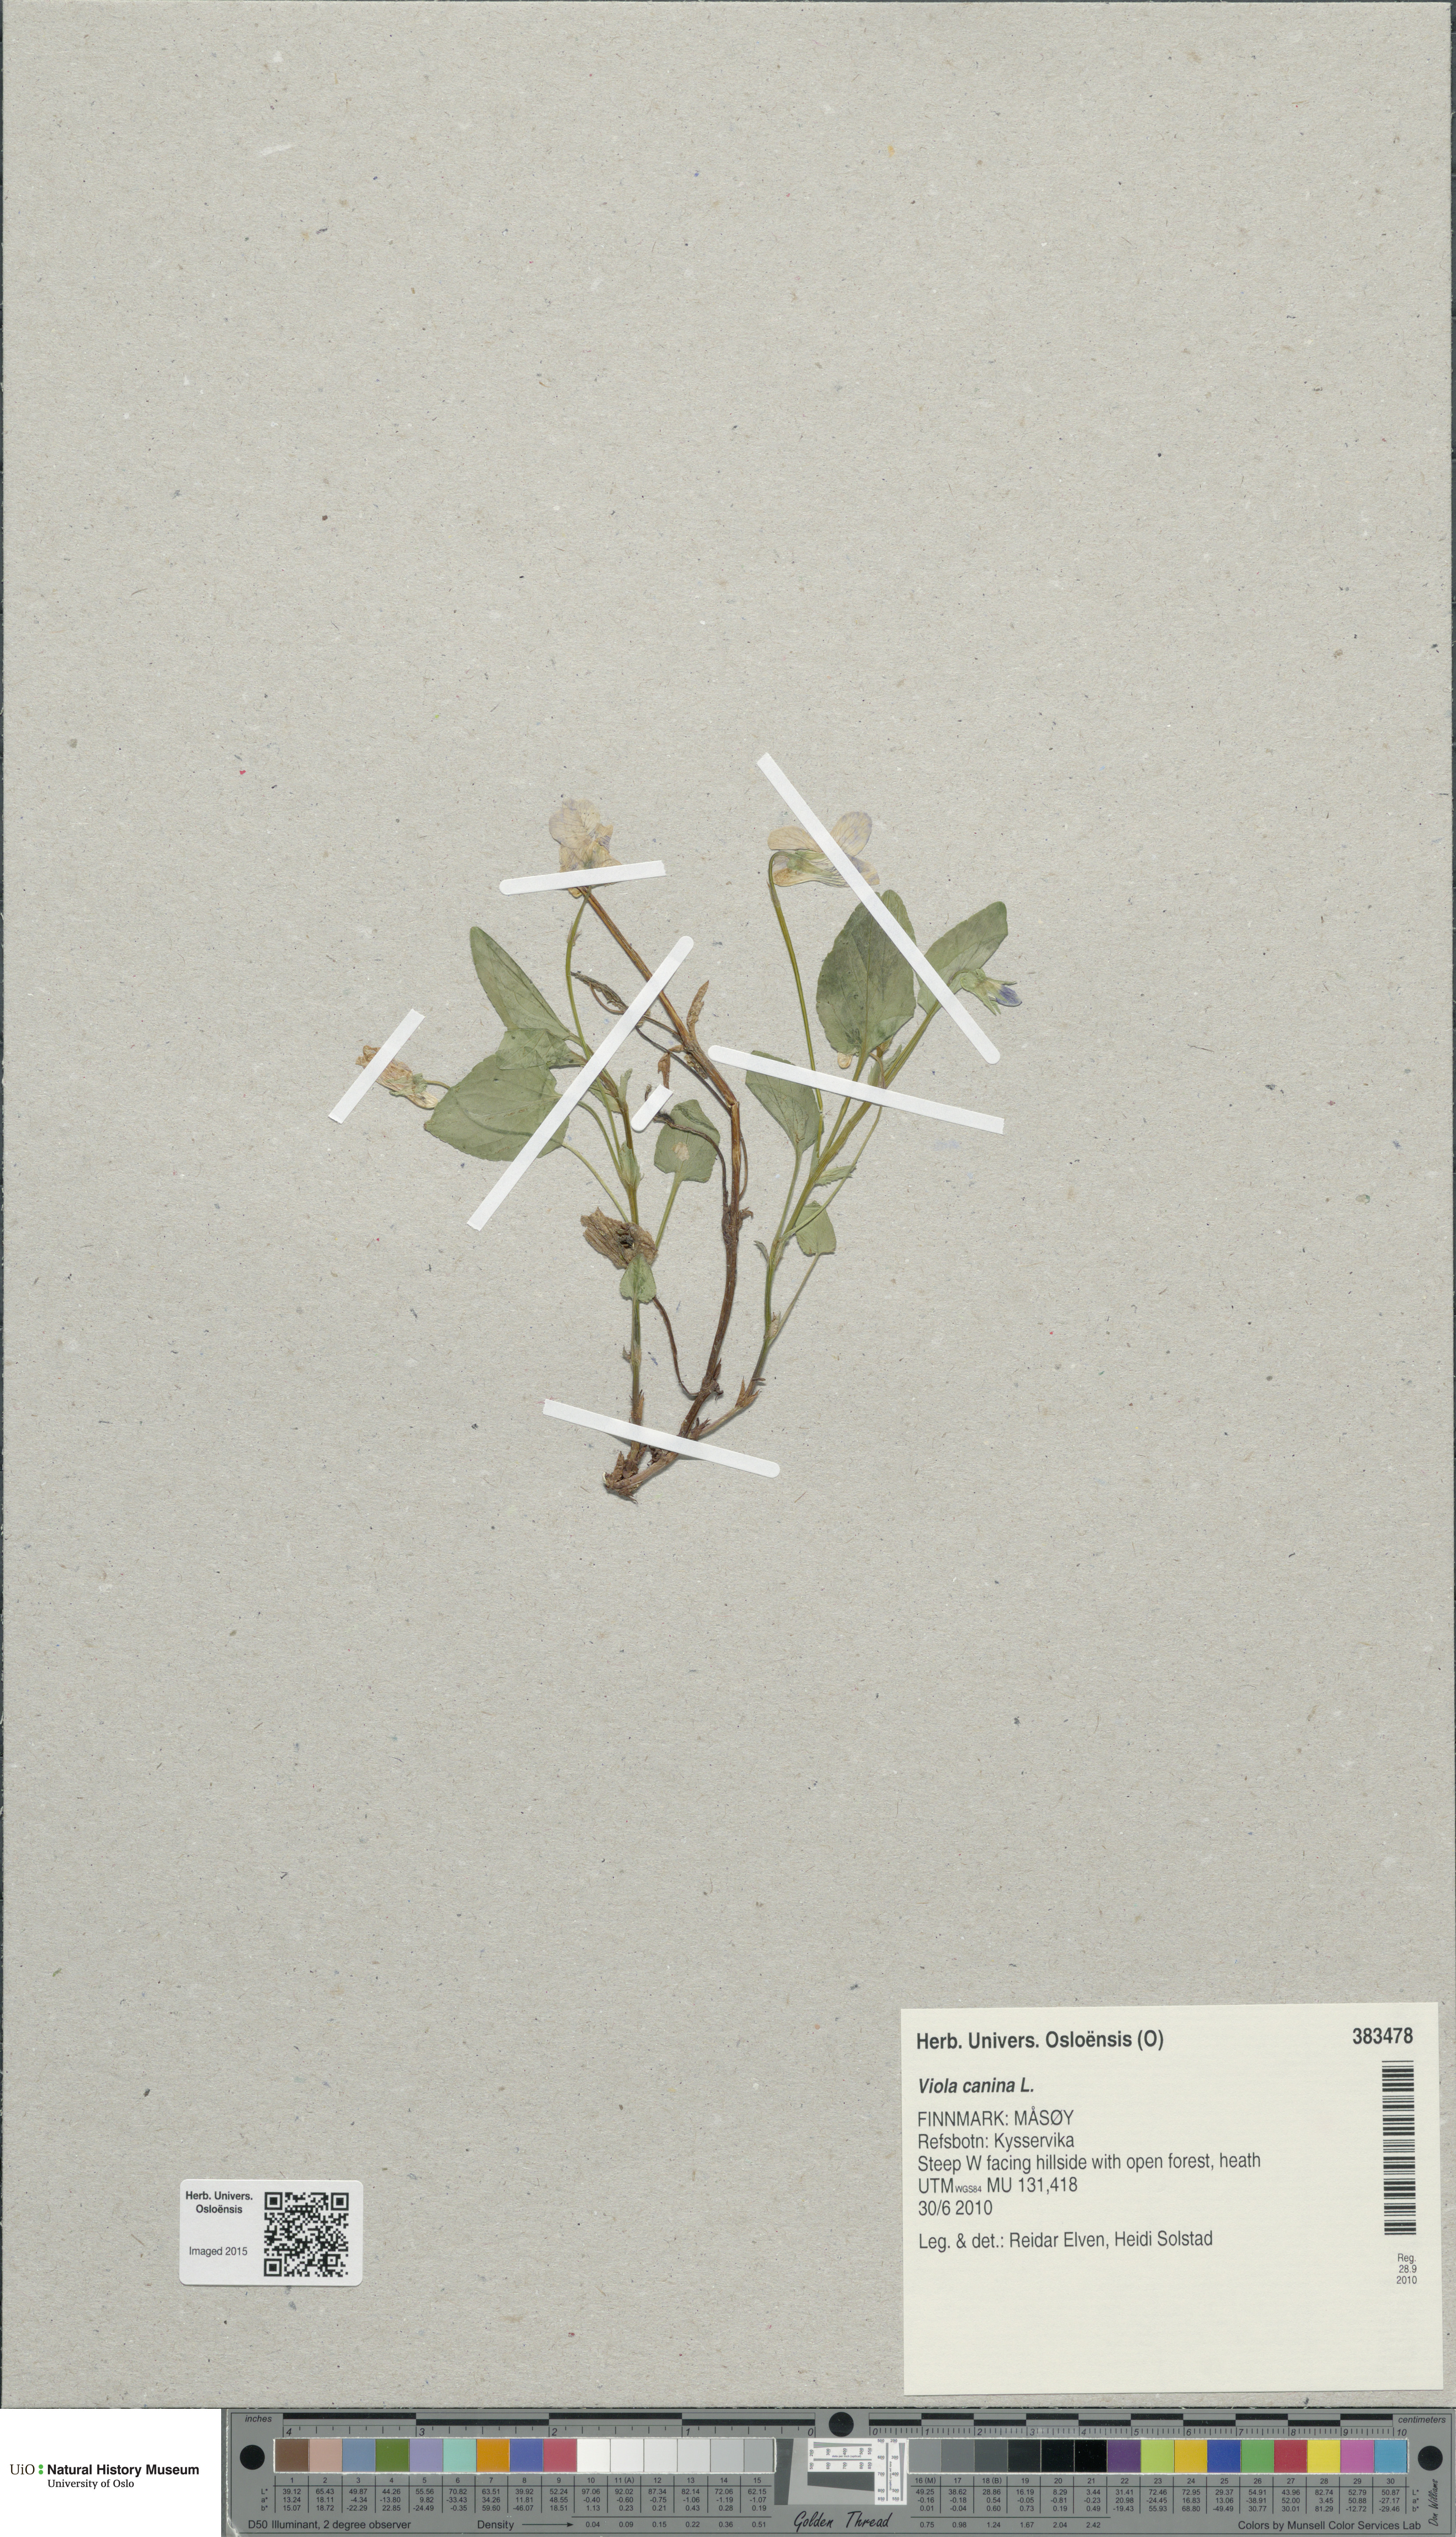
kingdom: Plantae
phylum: Tracheophyta
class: Magnoliopsida
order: Malpighiales
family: Violaceae
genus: Viola
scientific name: Viola canina
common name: Heath dog-violet
